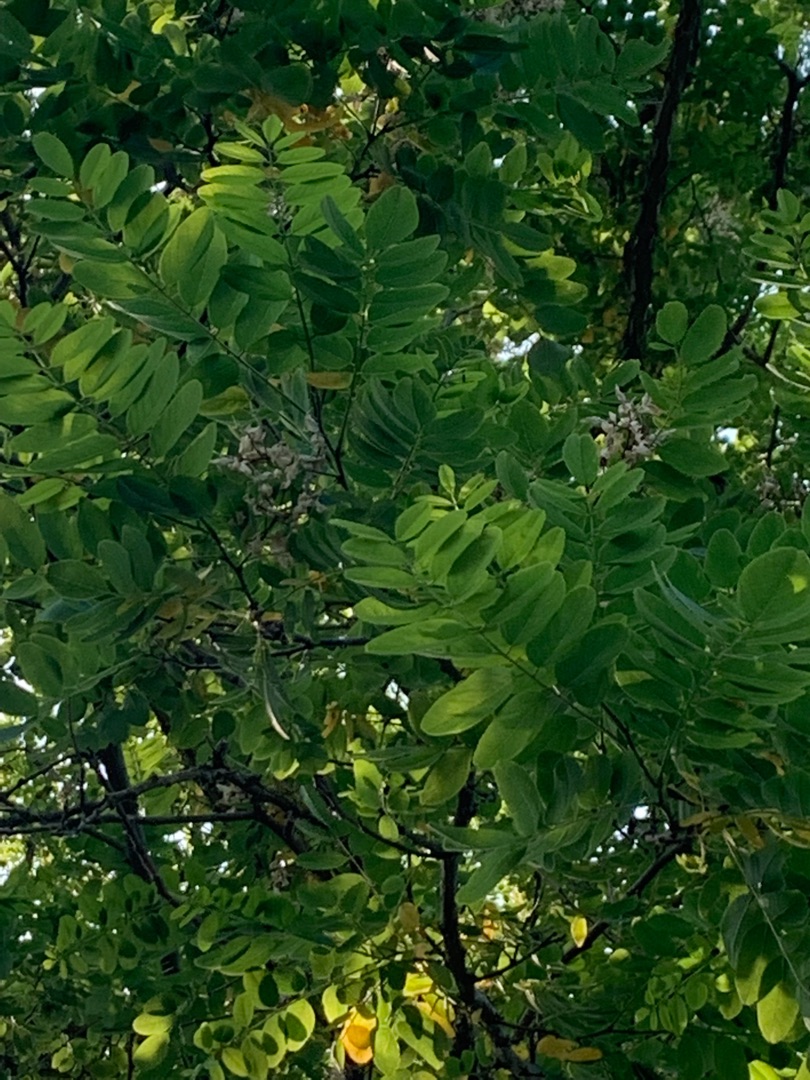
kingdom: Plantae
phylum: Tracheophyta
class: Magnoliopsida
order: Fabales
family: Fabaceae
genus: Robinia
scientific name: Robinia pseudoacacia
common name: Robinie
